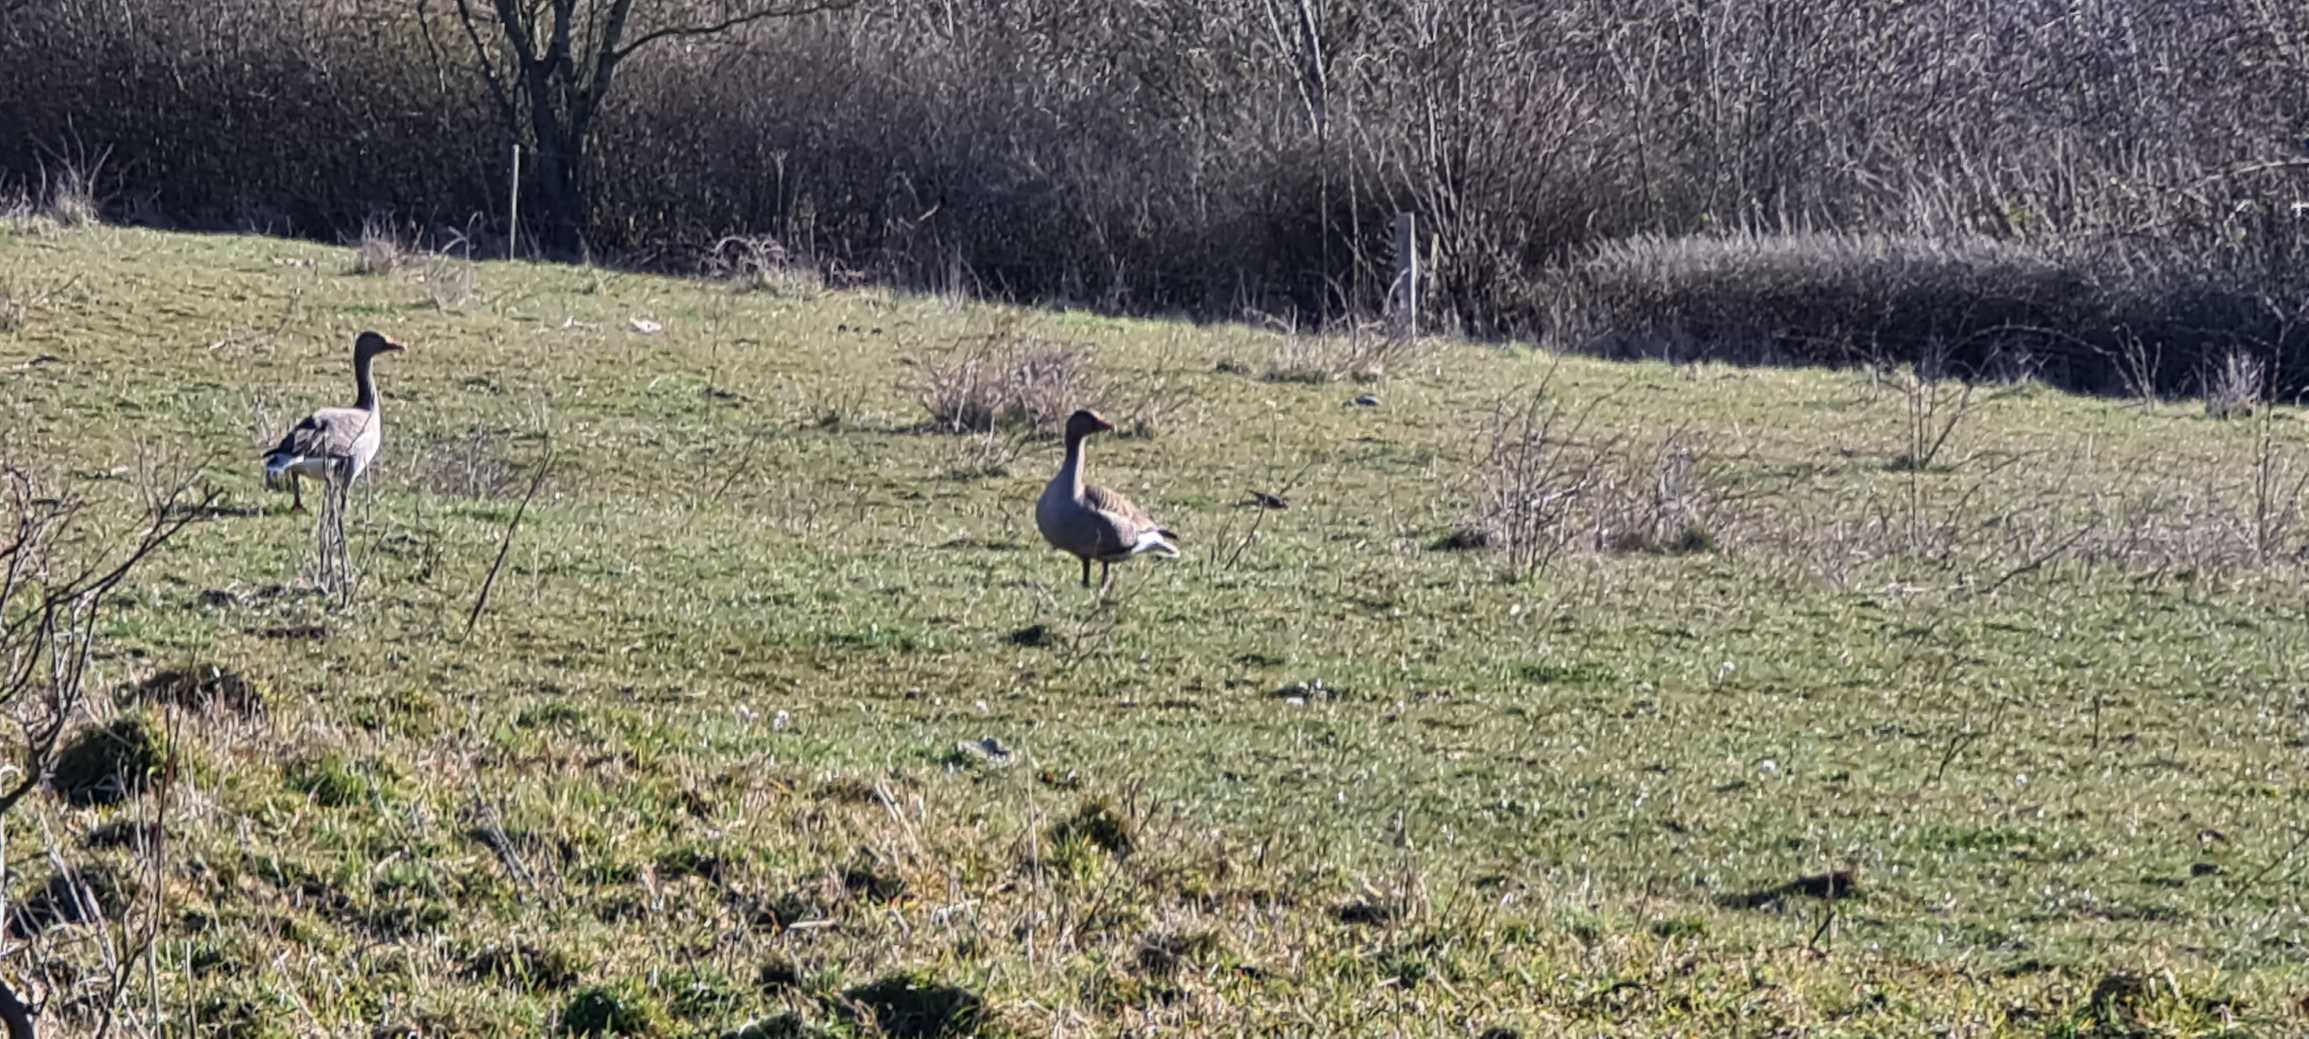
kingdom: Animalia
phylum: Chordata
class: Aves
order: Anseriformes
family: Anatidae
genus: Anser
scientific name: Anser anser
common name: Grågås
